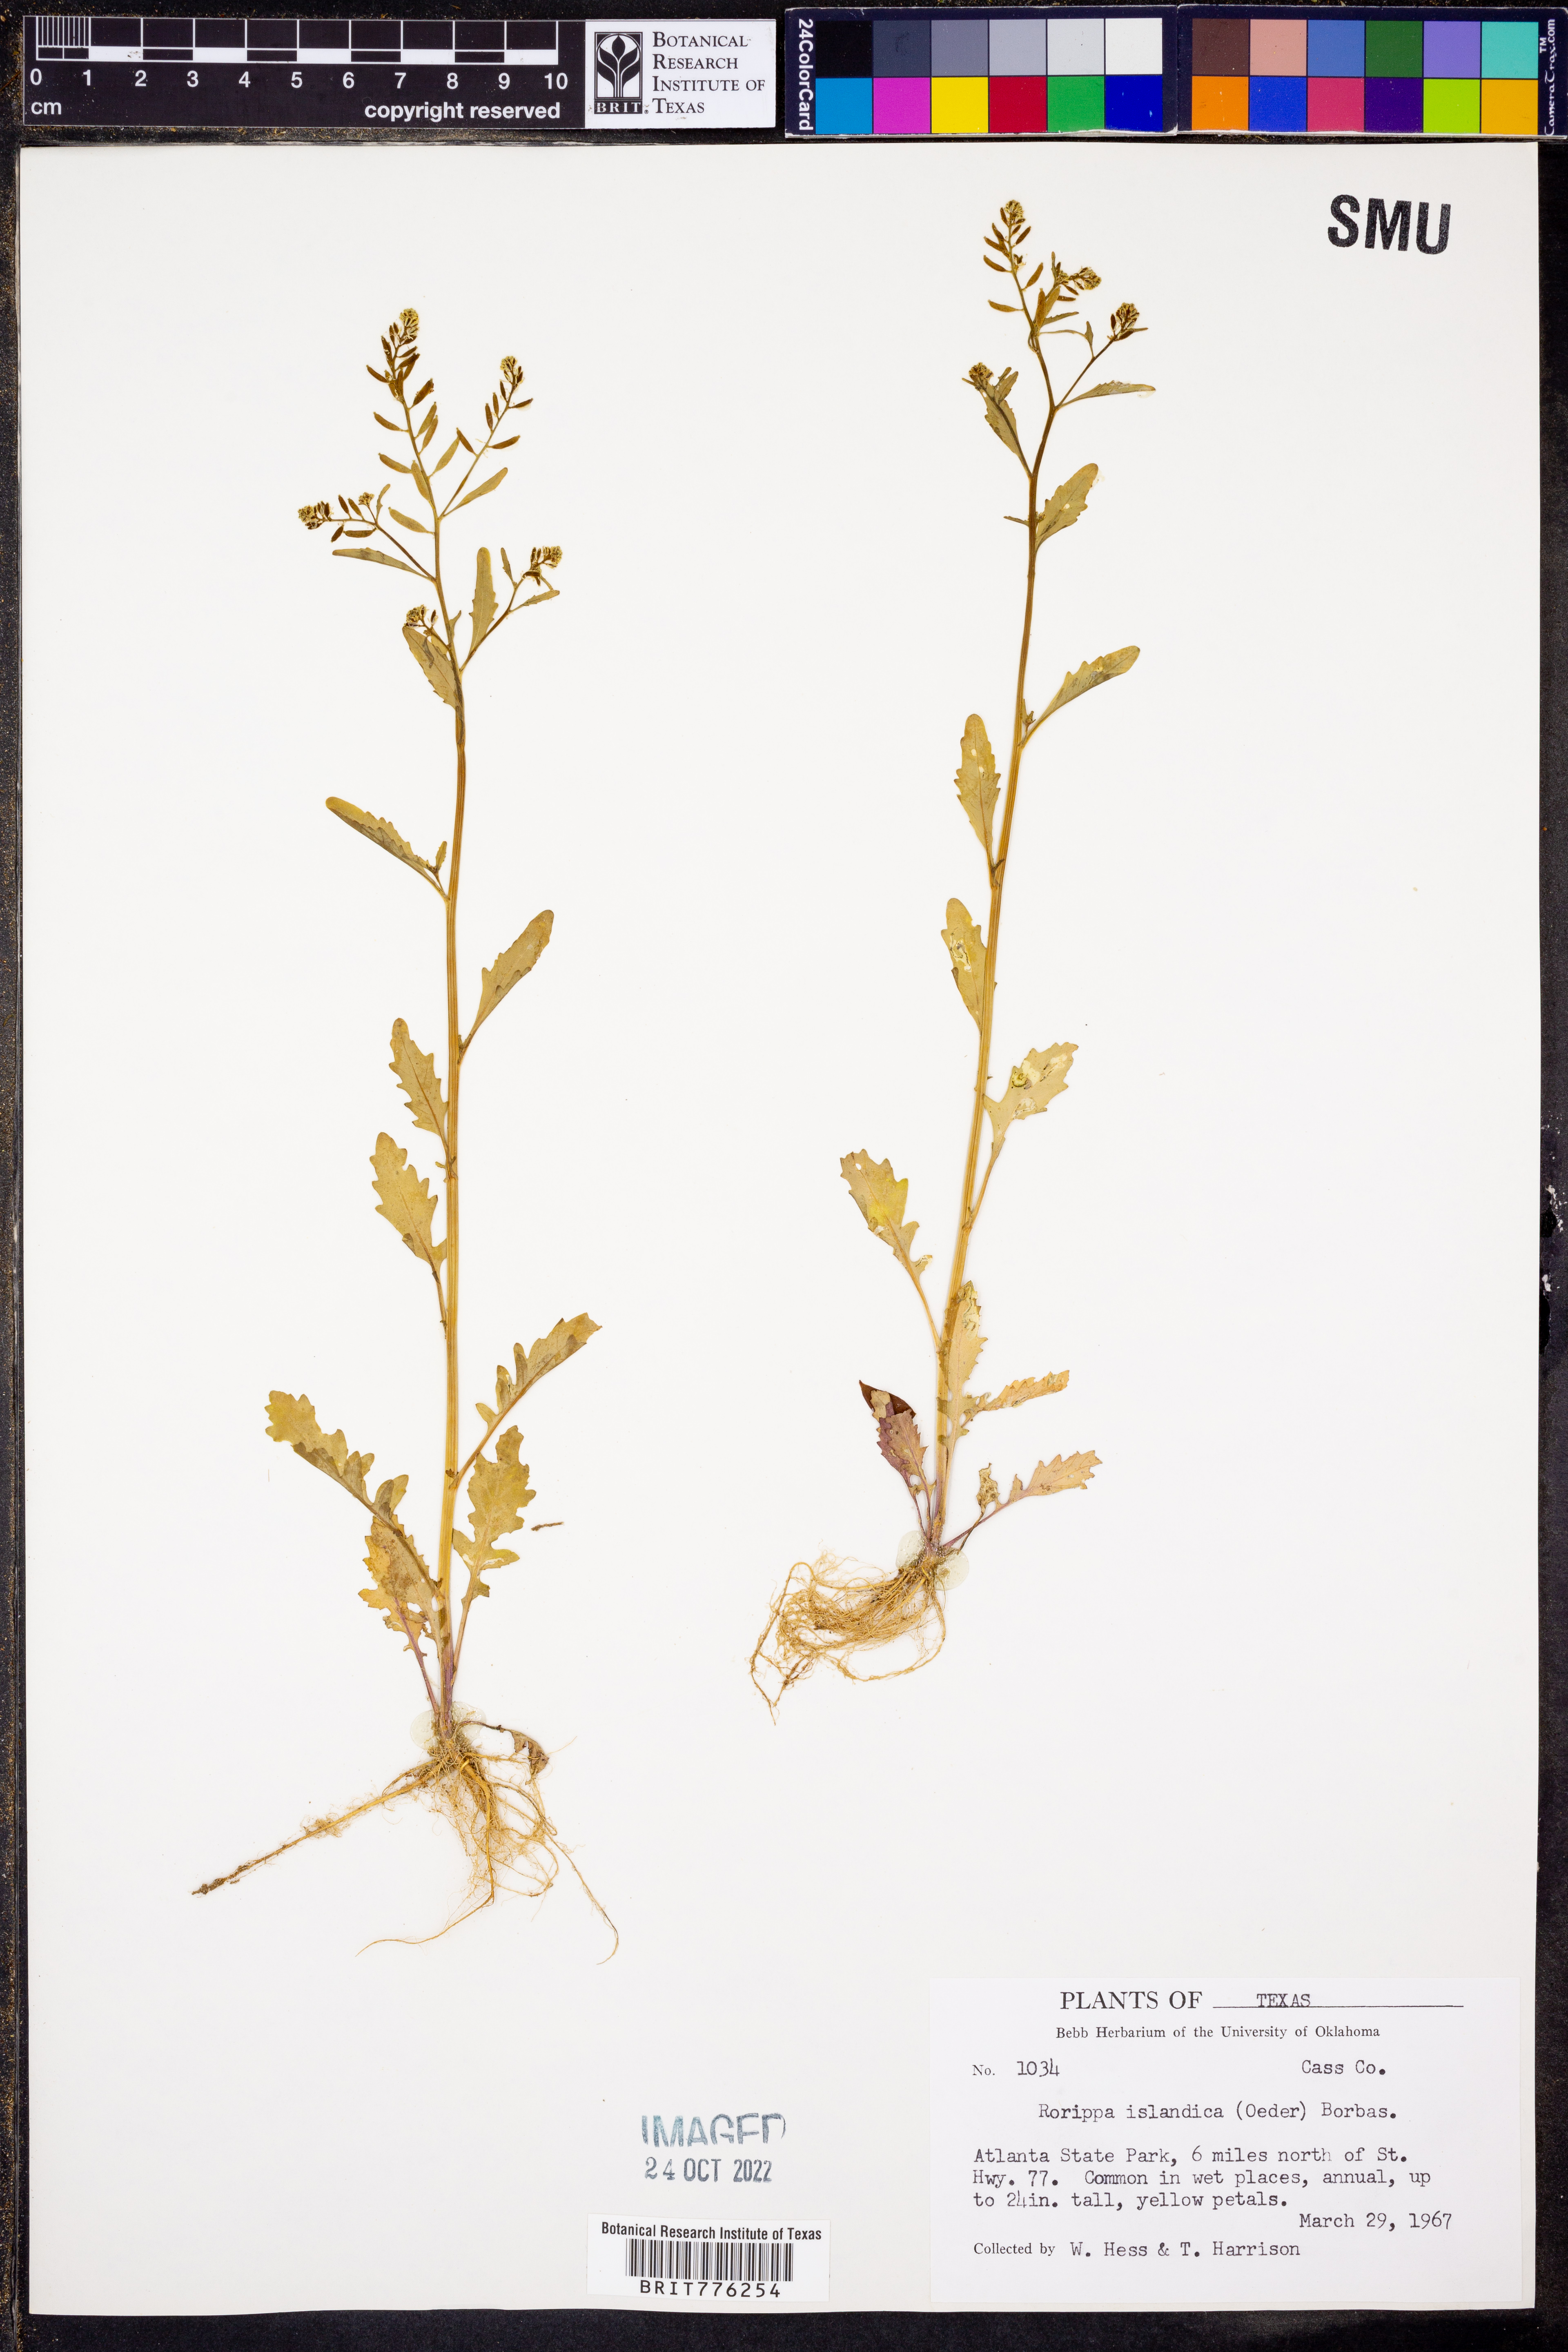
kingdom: Plantae
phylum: Tracheophyta
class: Magnoliopsida
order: Brassicales
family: Brassicaceae
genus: Rorippa
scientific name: Rorippa islandica
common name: Marsh cress
